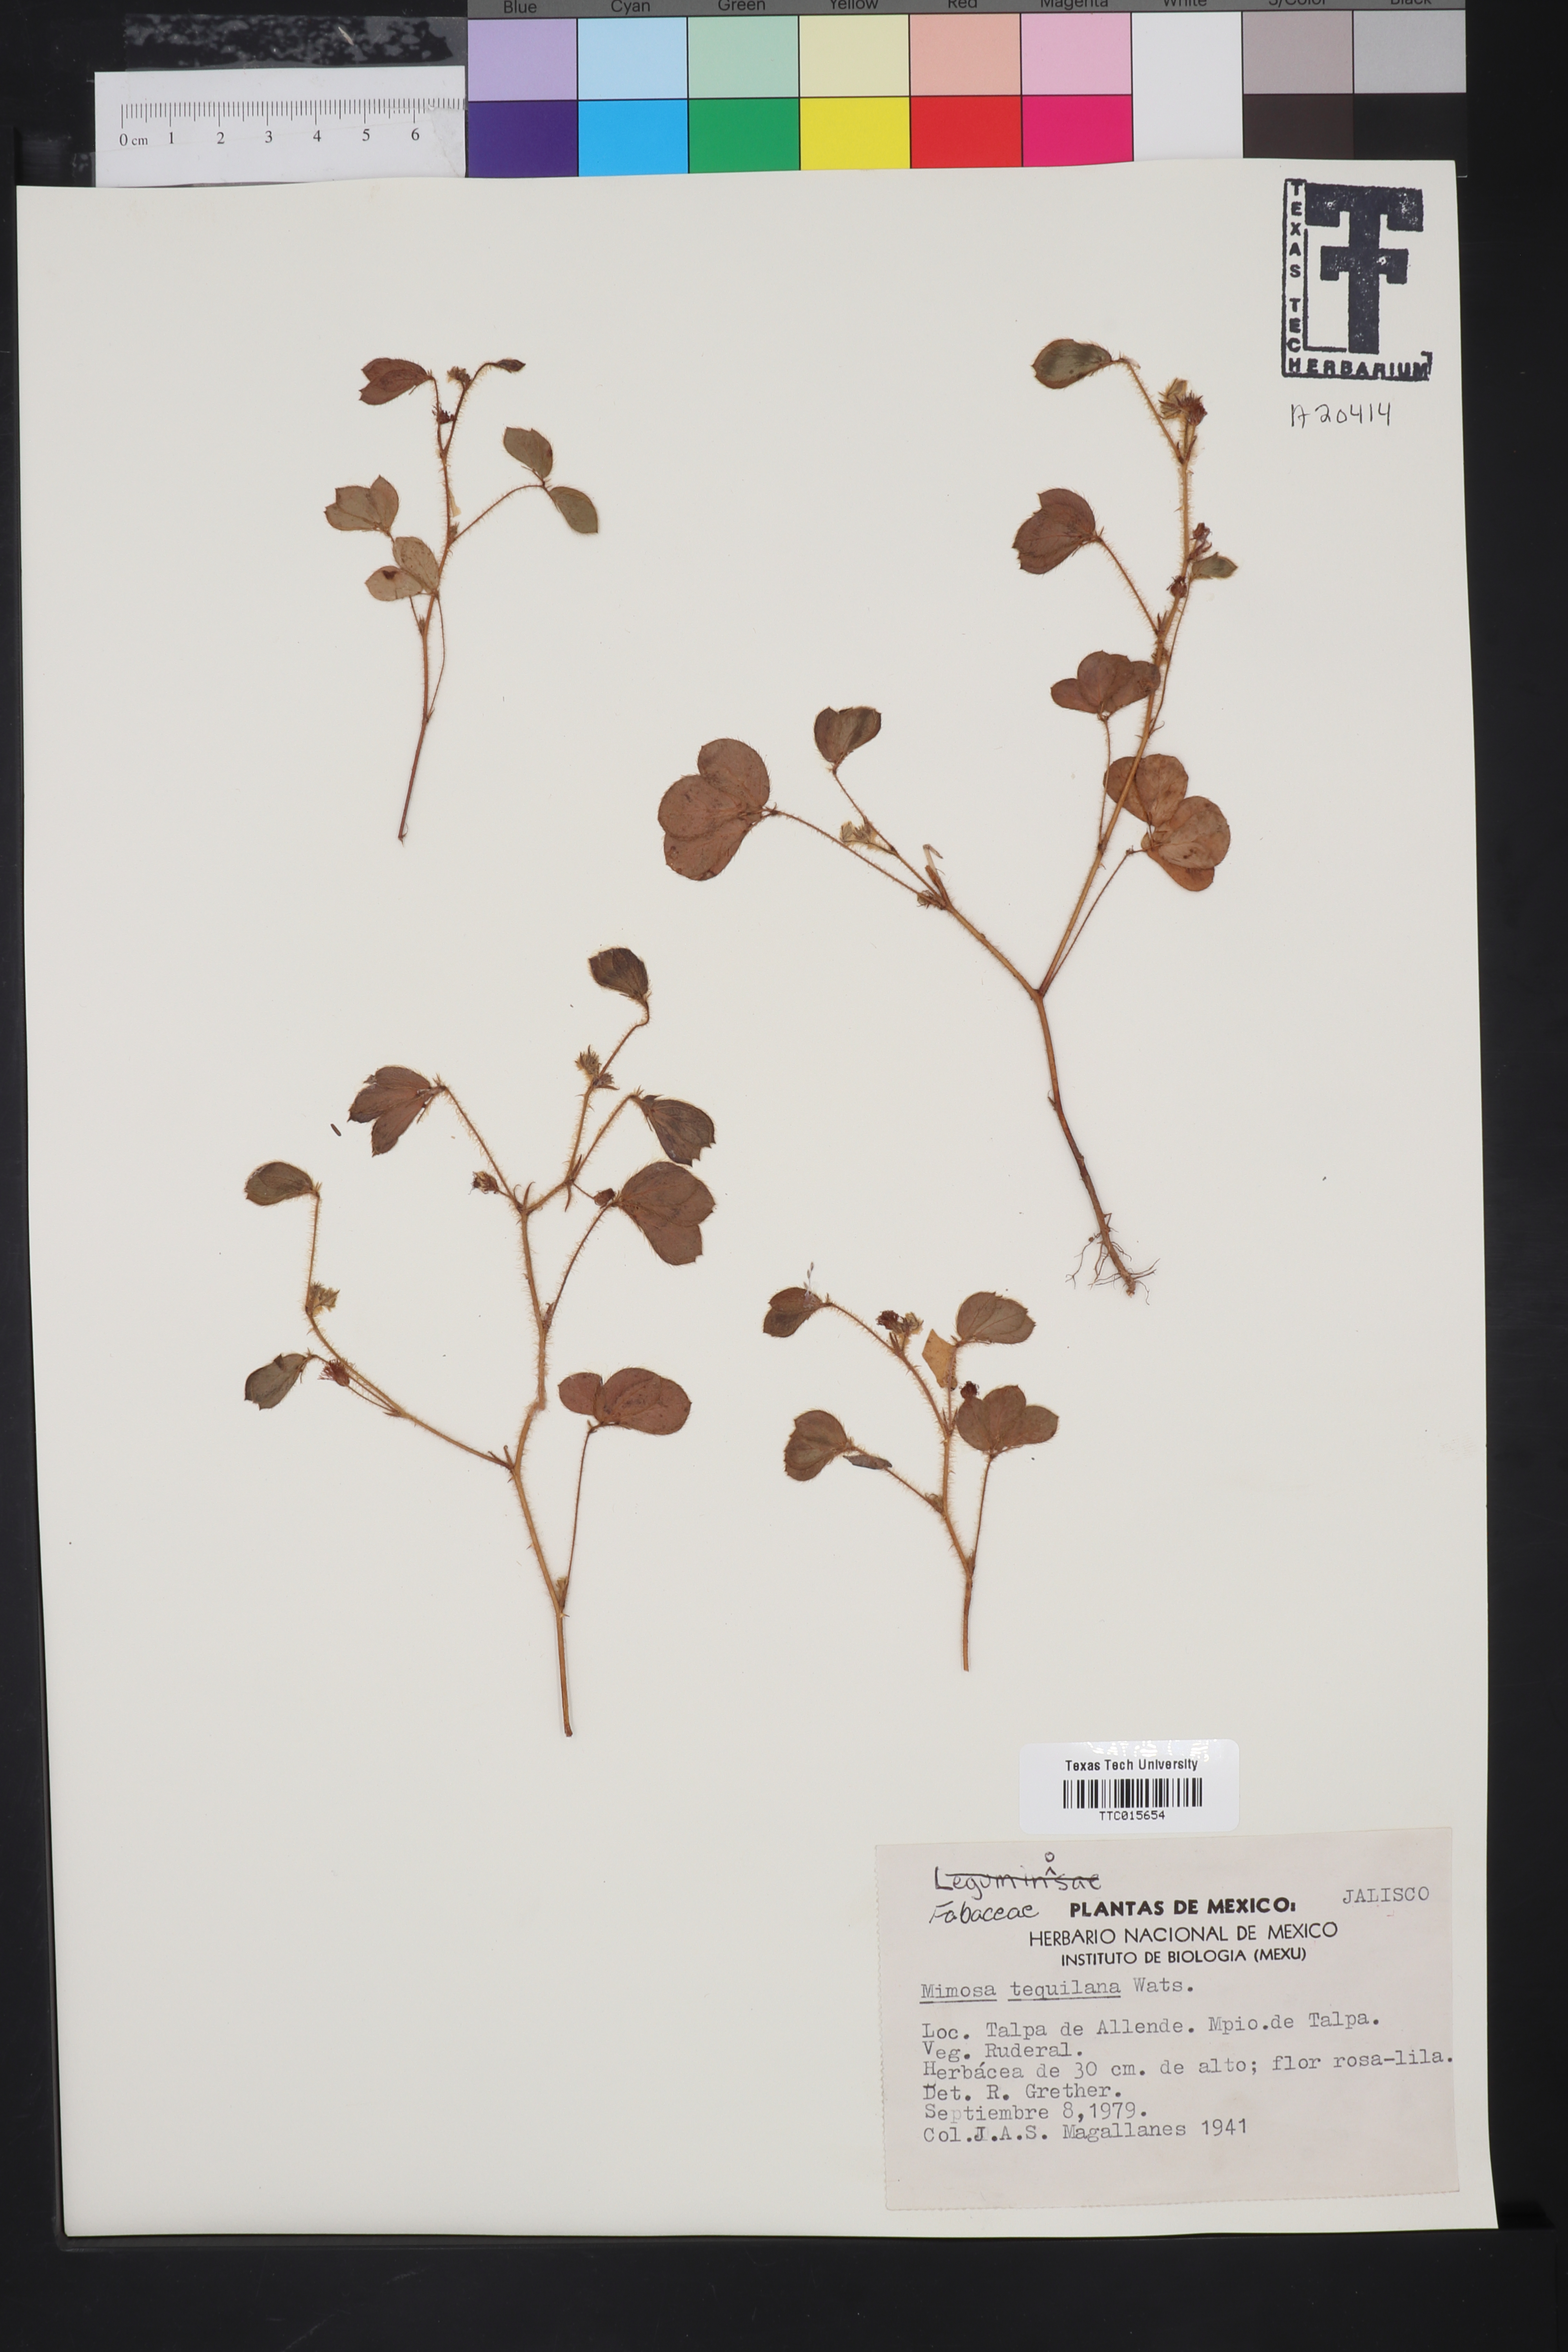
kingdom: Plantae
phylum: Tracheophyta
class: Magnoliopsida
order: Fabales
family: Fabaceae
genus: Mimosa
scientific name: Mimosa tequilana
